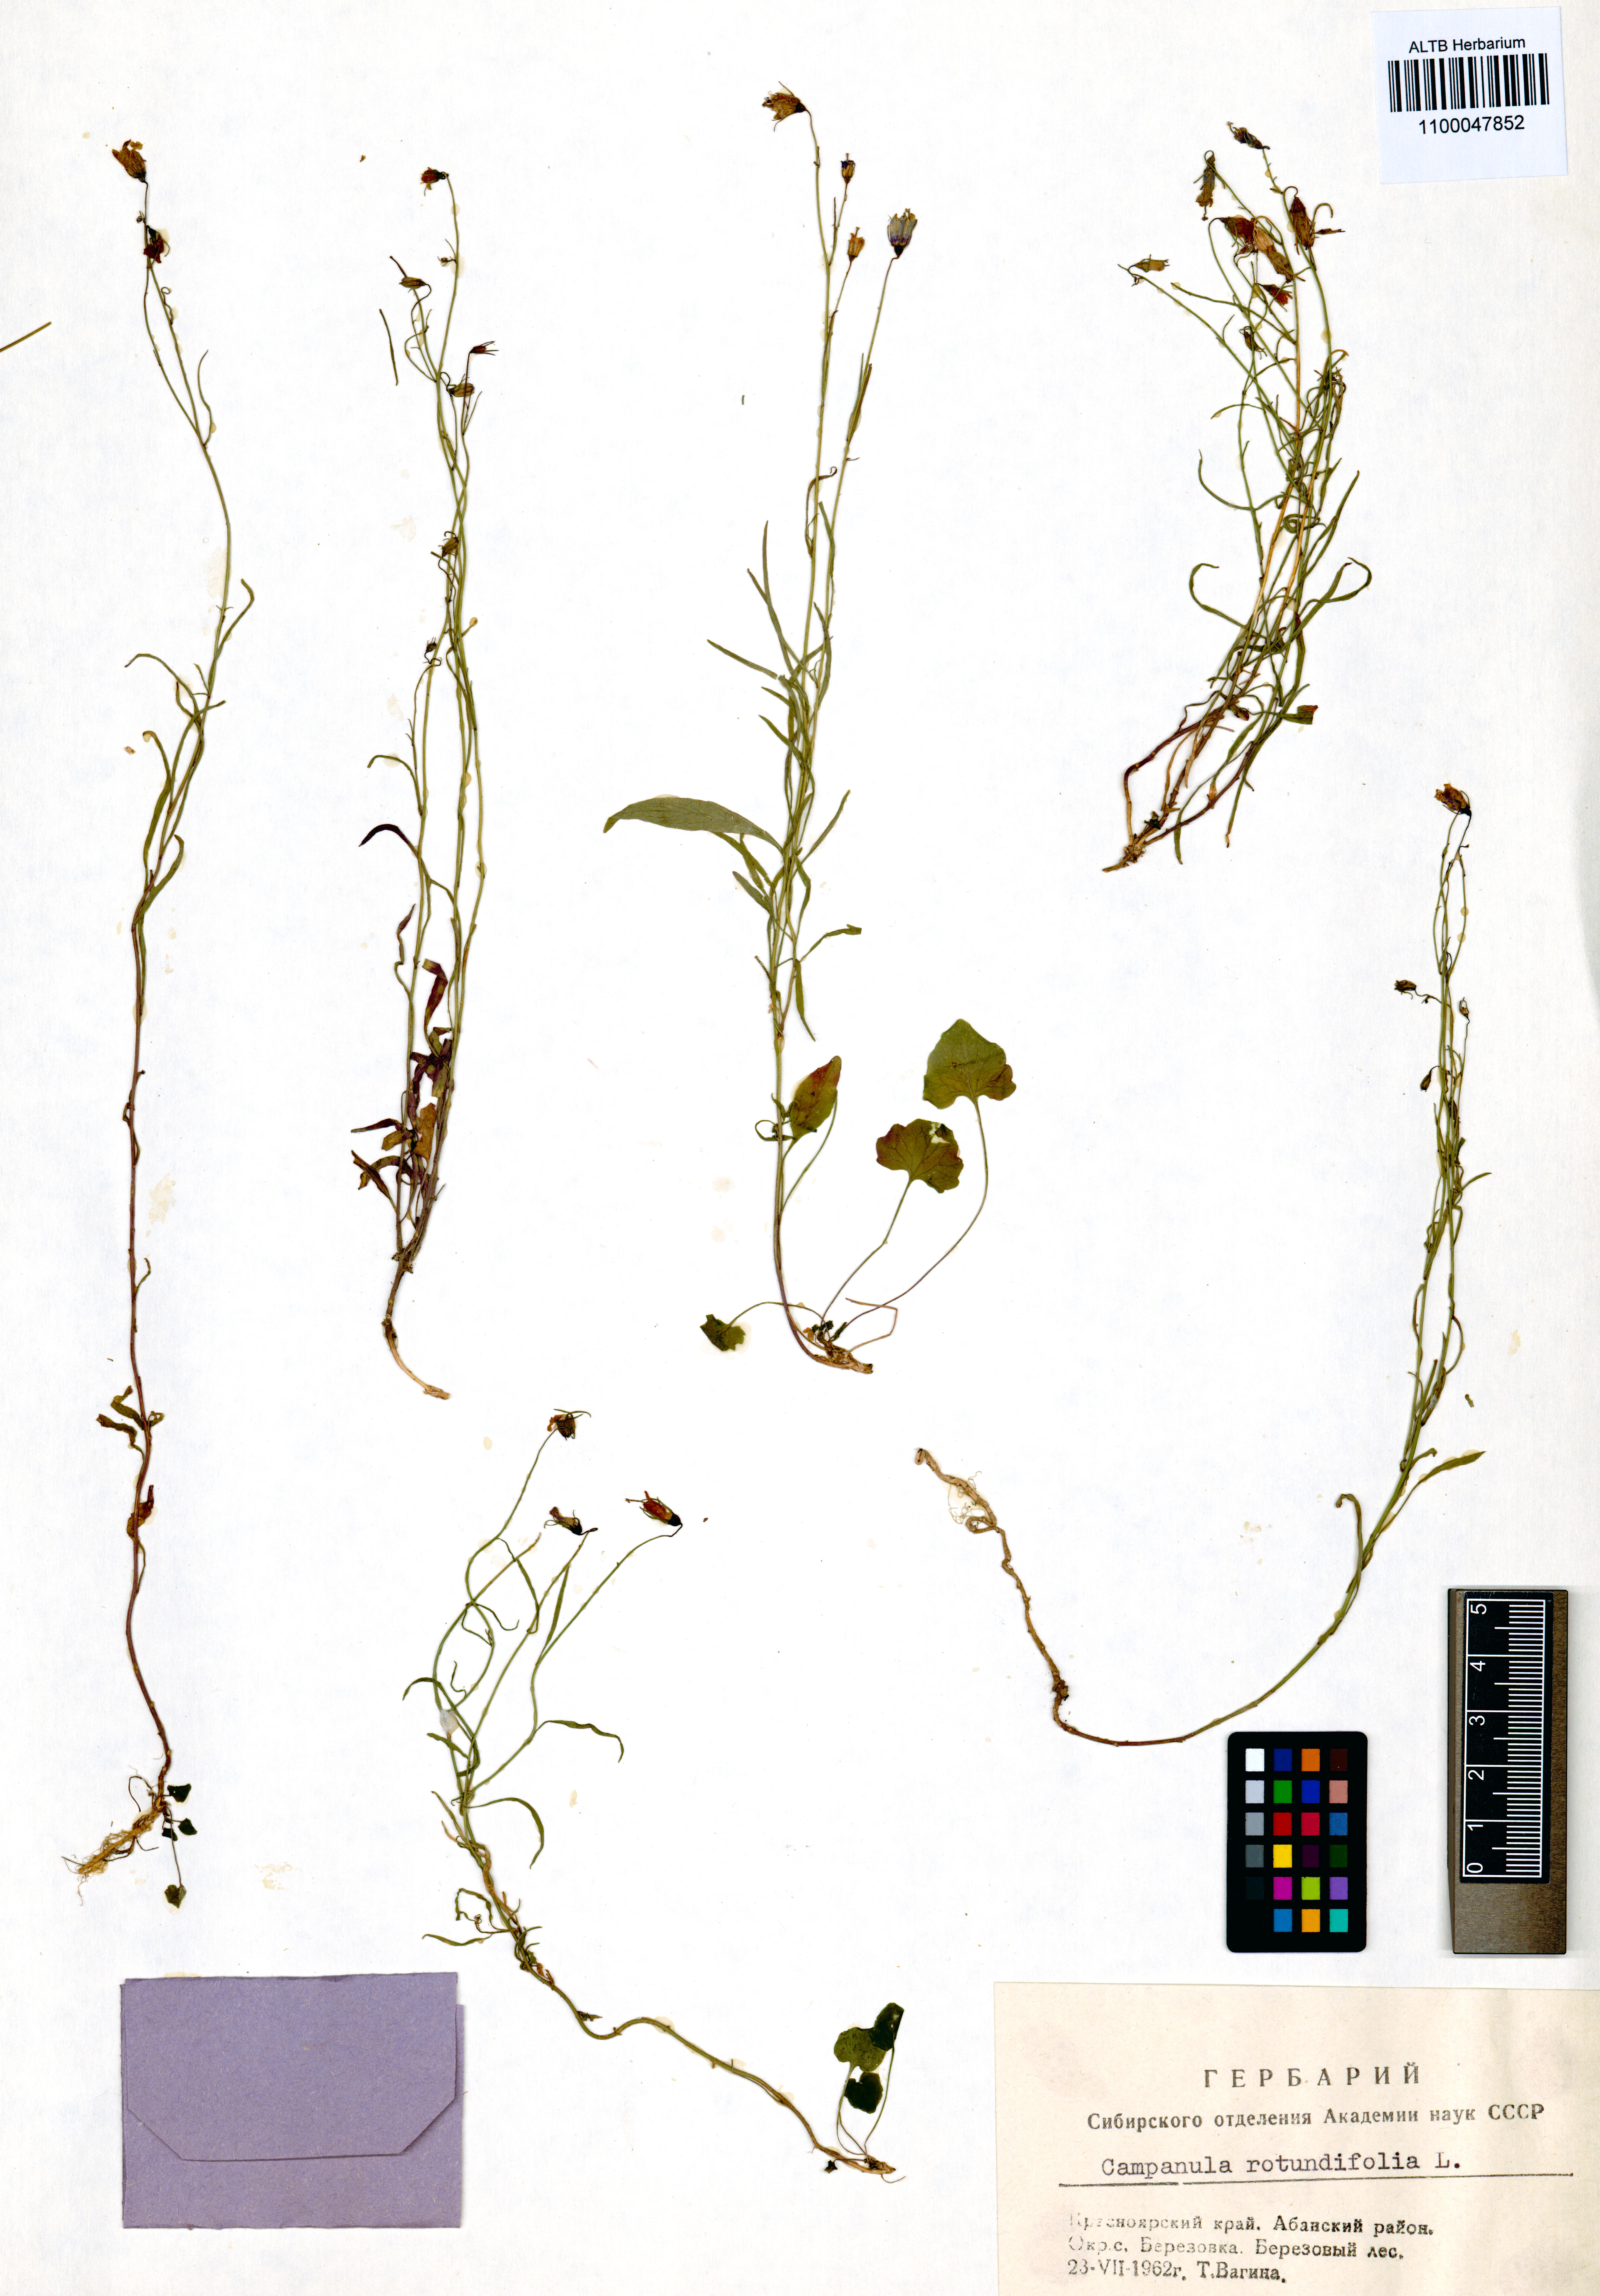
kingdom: Plantae
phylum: Tracheophyta
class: Magnoliopsida
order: Asterales
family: Campanulaceae
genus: Campanula
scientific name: Campanula rotundifolia
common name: Harebell
